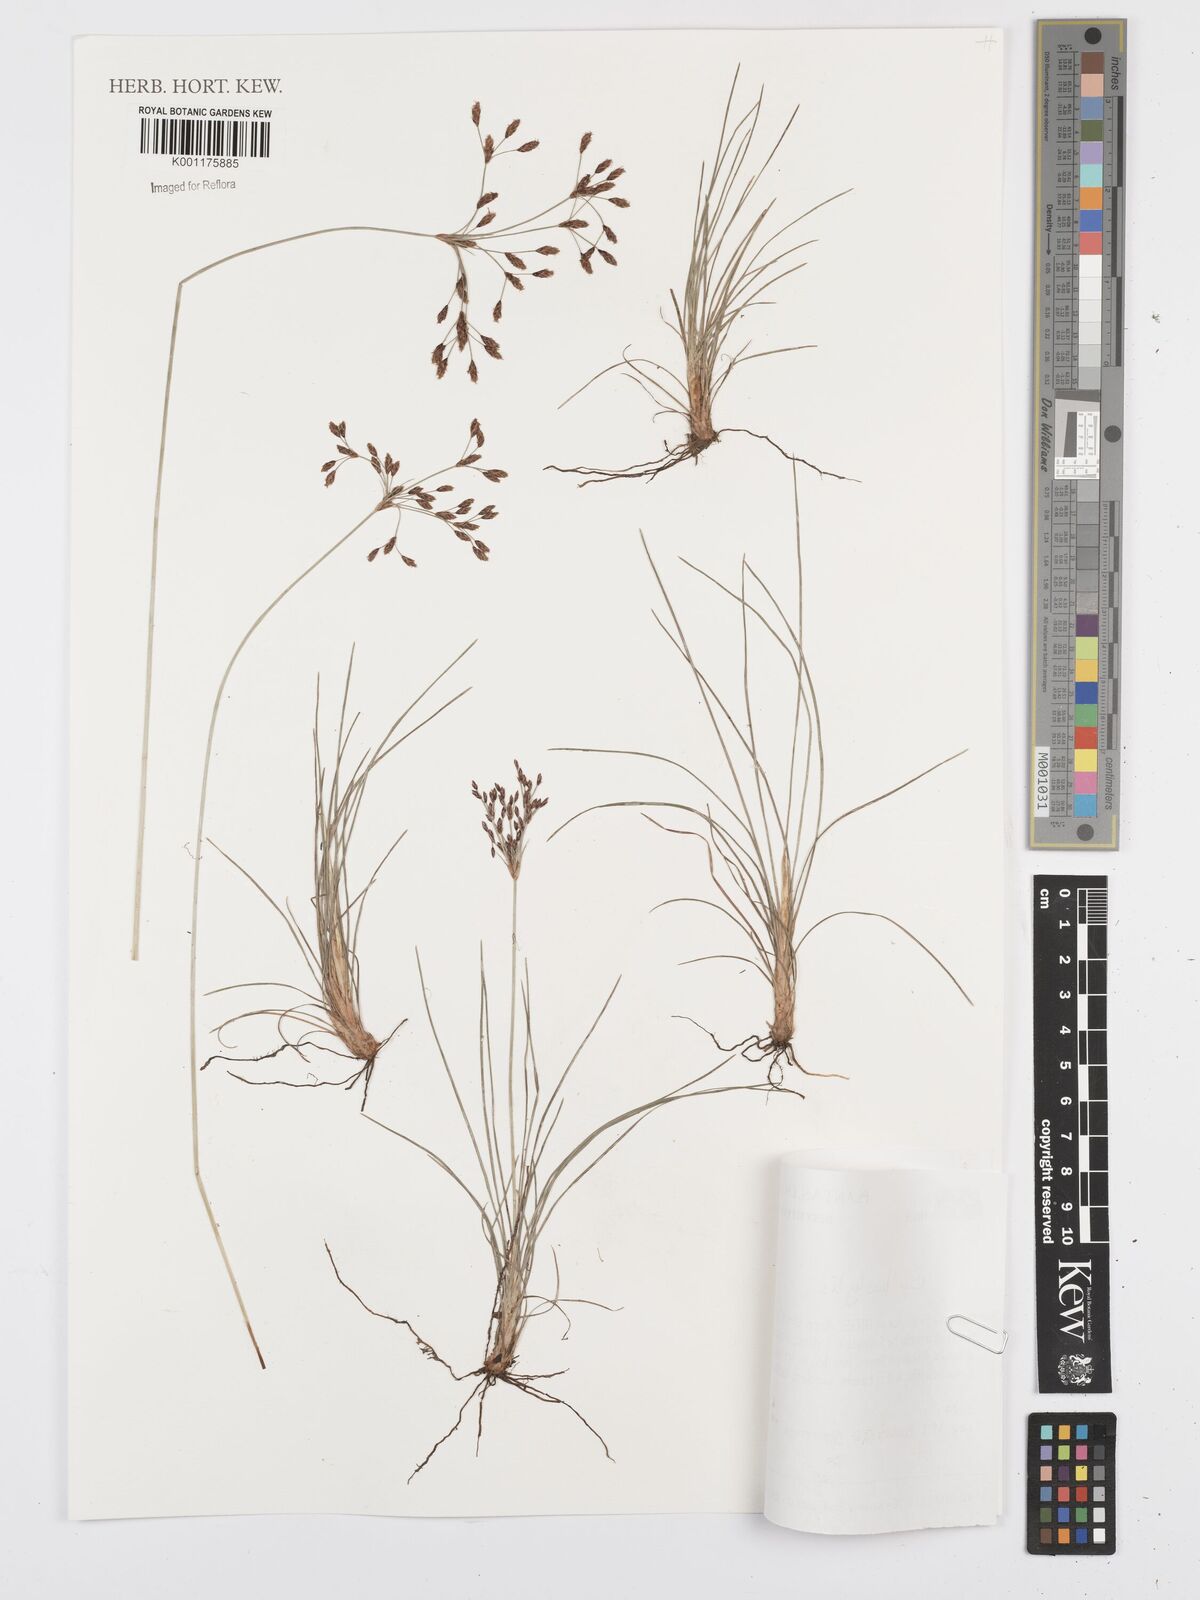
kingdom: Plantae
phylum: Tracheophyta
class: Liliopsida
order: Poales
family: Cyperaceae
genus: Bulbostylis
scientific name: Bulbostylis
